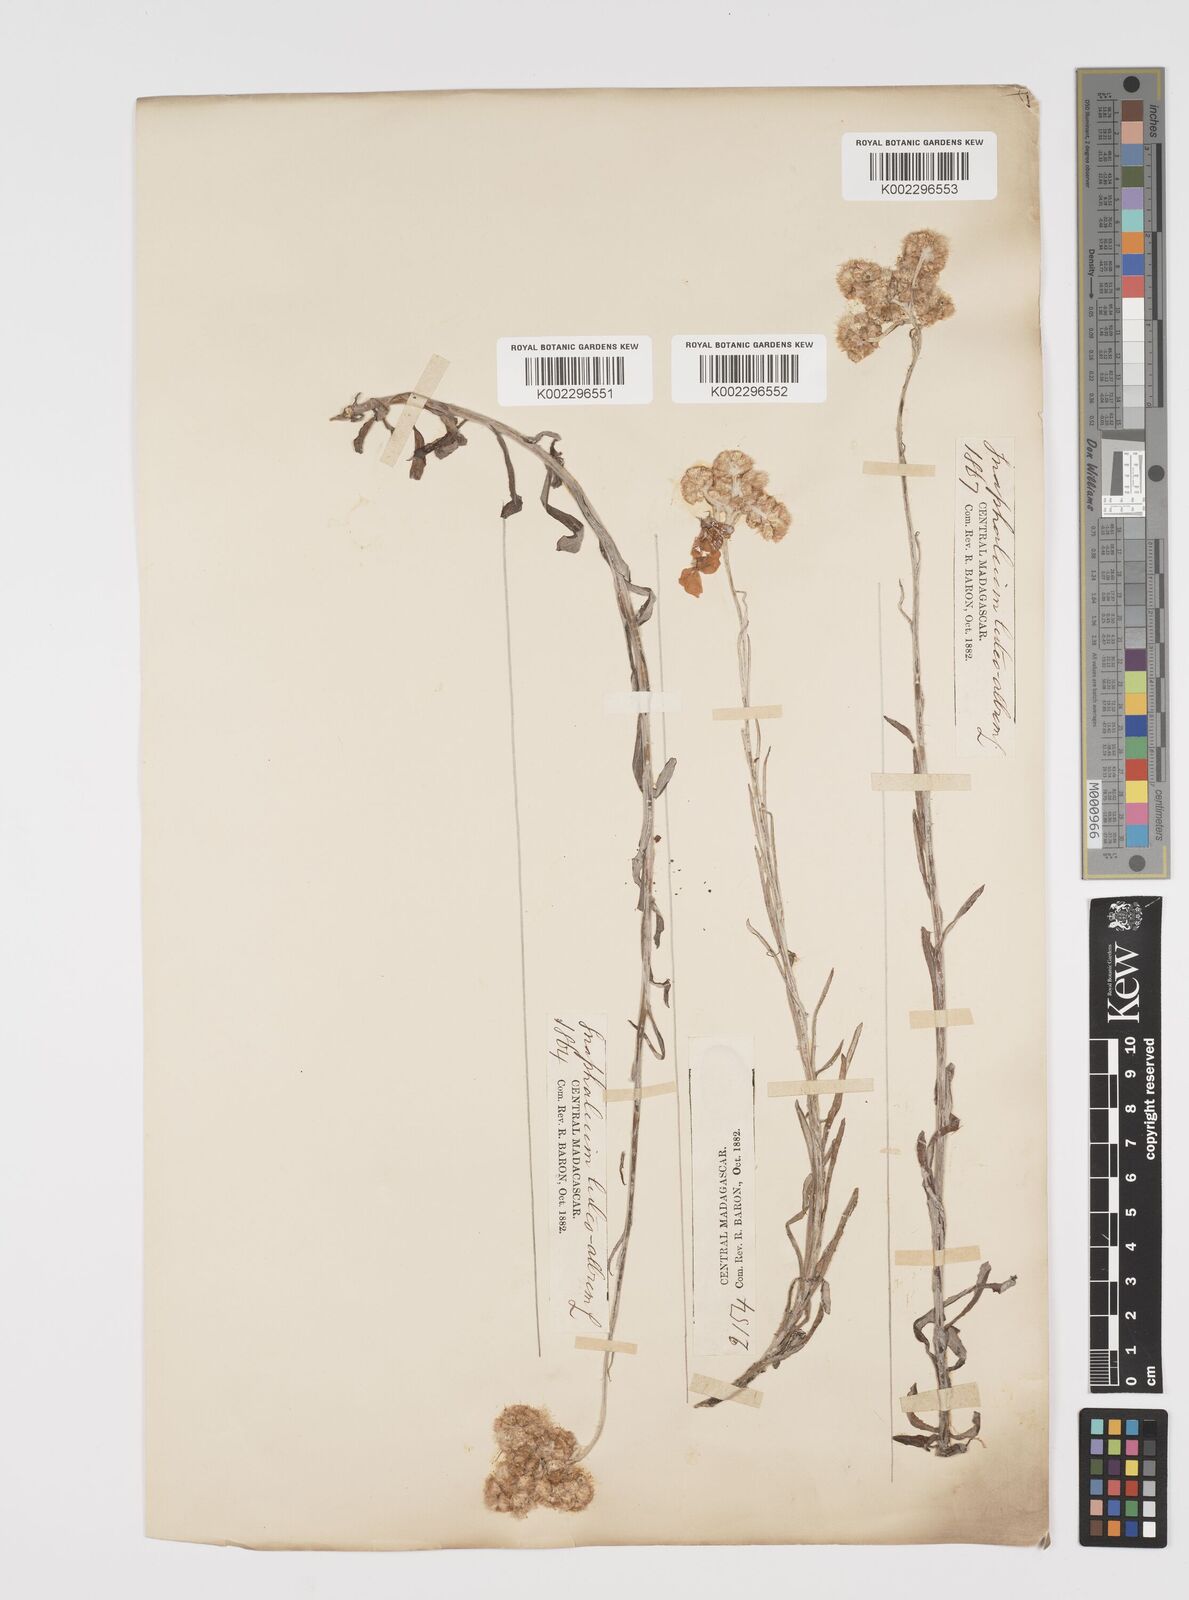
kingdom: Plantae
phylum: Tracheophyta
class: Magnoliopsida
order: Asterales
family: Asteraceae
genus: Helichrysum
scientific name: Helichrysum luteoalbum
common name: Daisy
